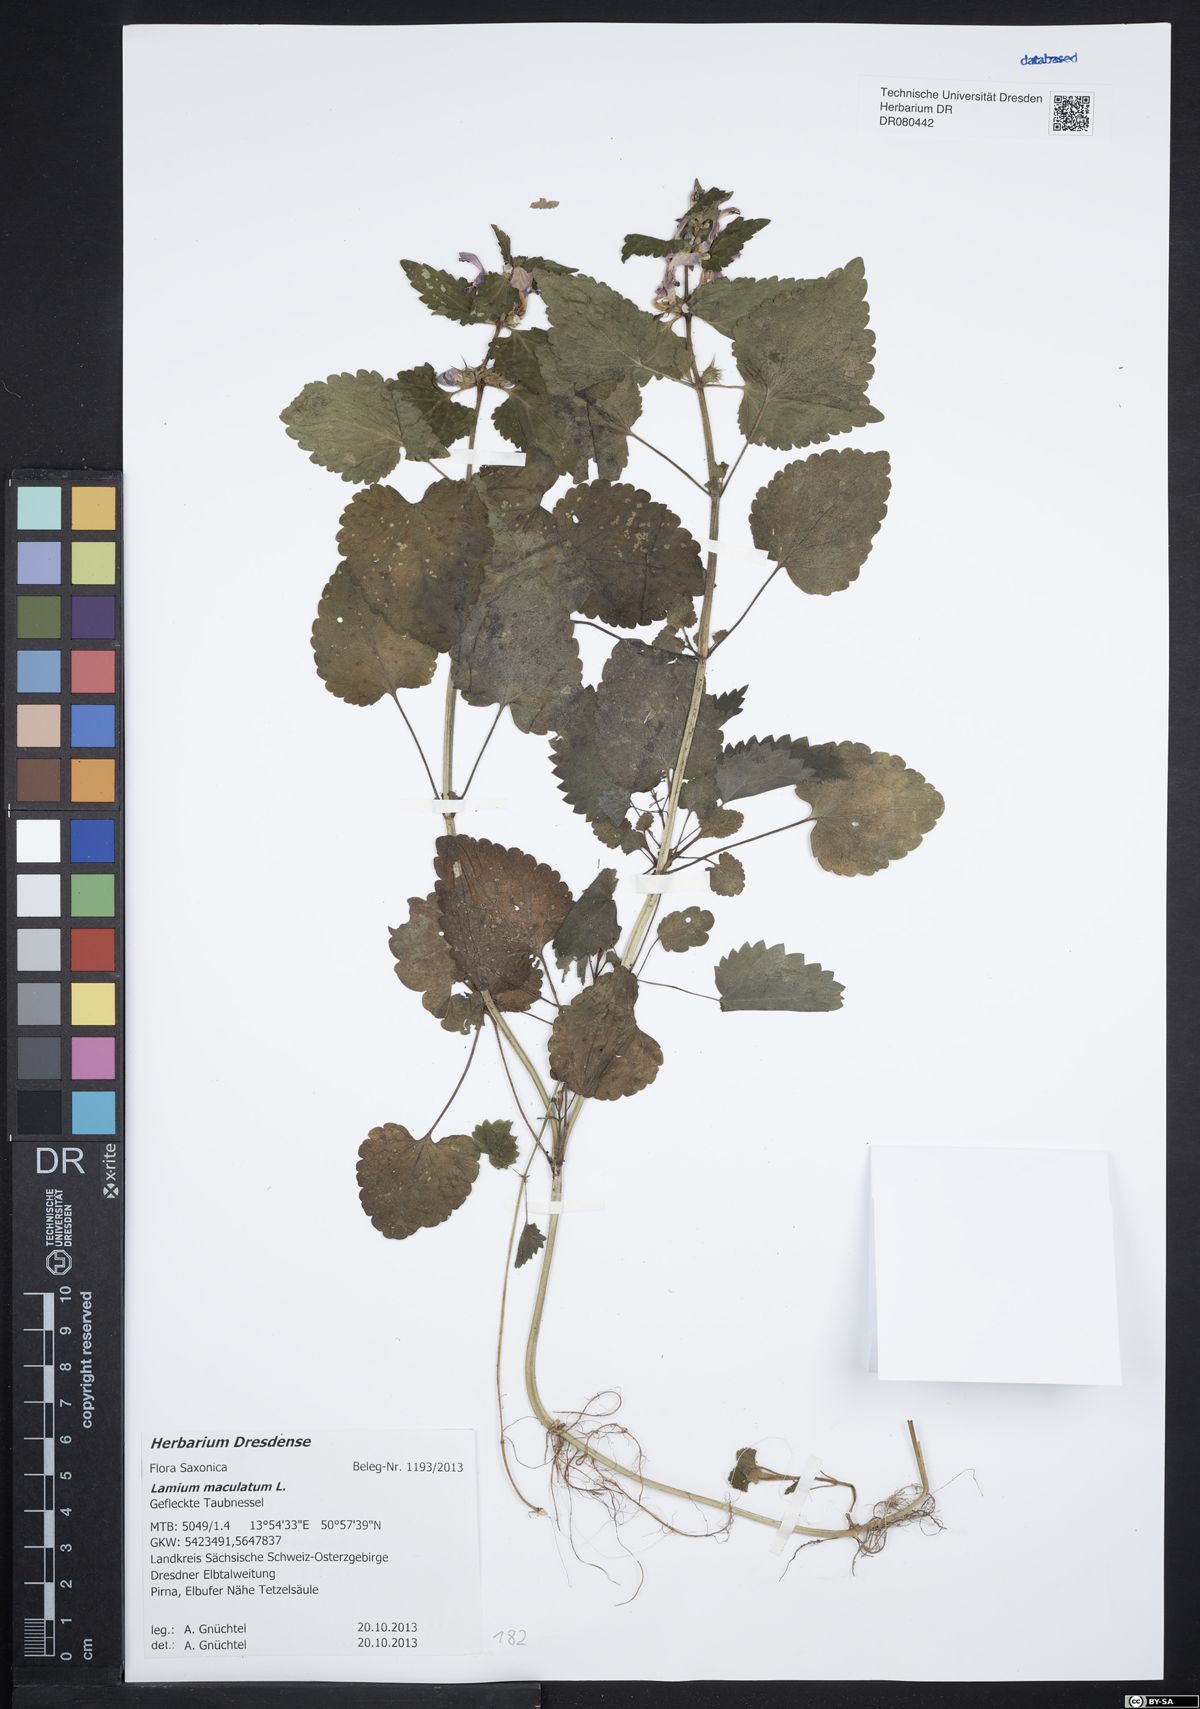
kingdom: Plantae
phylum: Tracheophyta
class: Magnoliopsida
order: Lamiales
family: Lamiaceae
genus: Lamium
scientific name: Lamium maculatum
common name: Spotted dead-nettle
